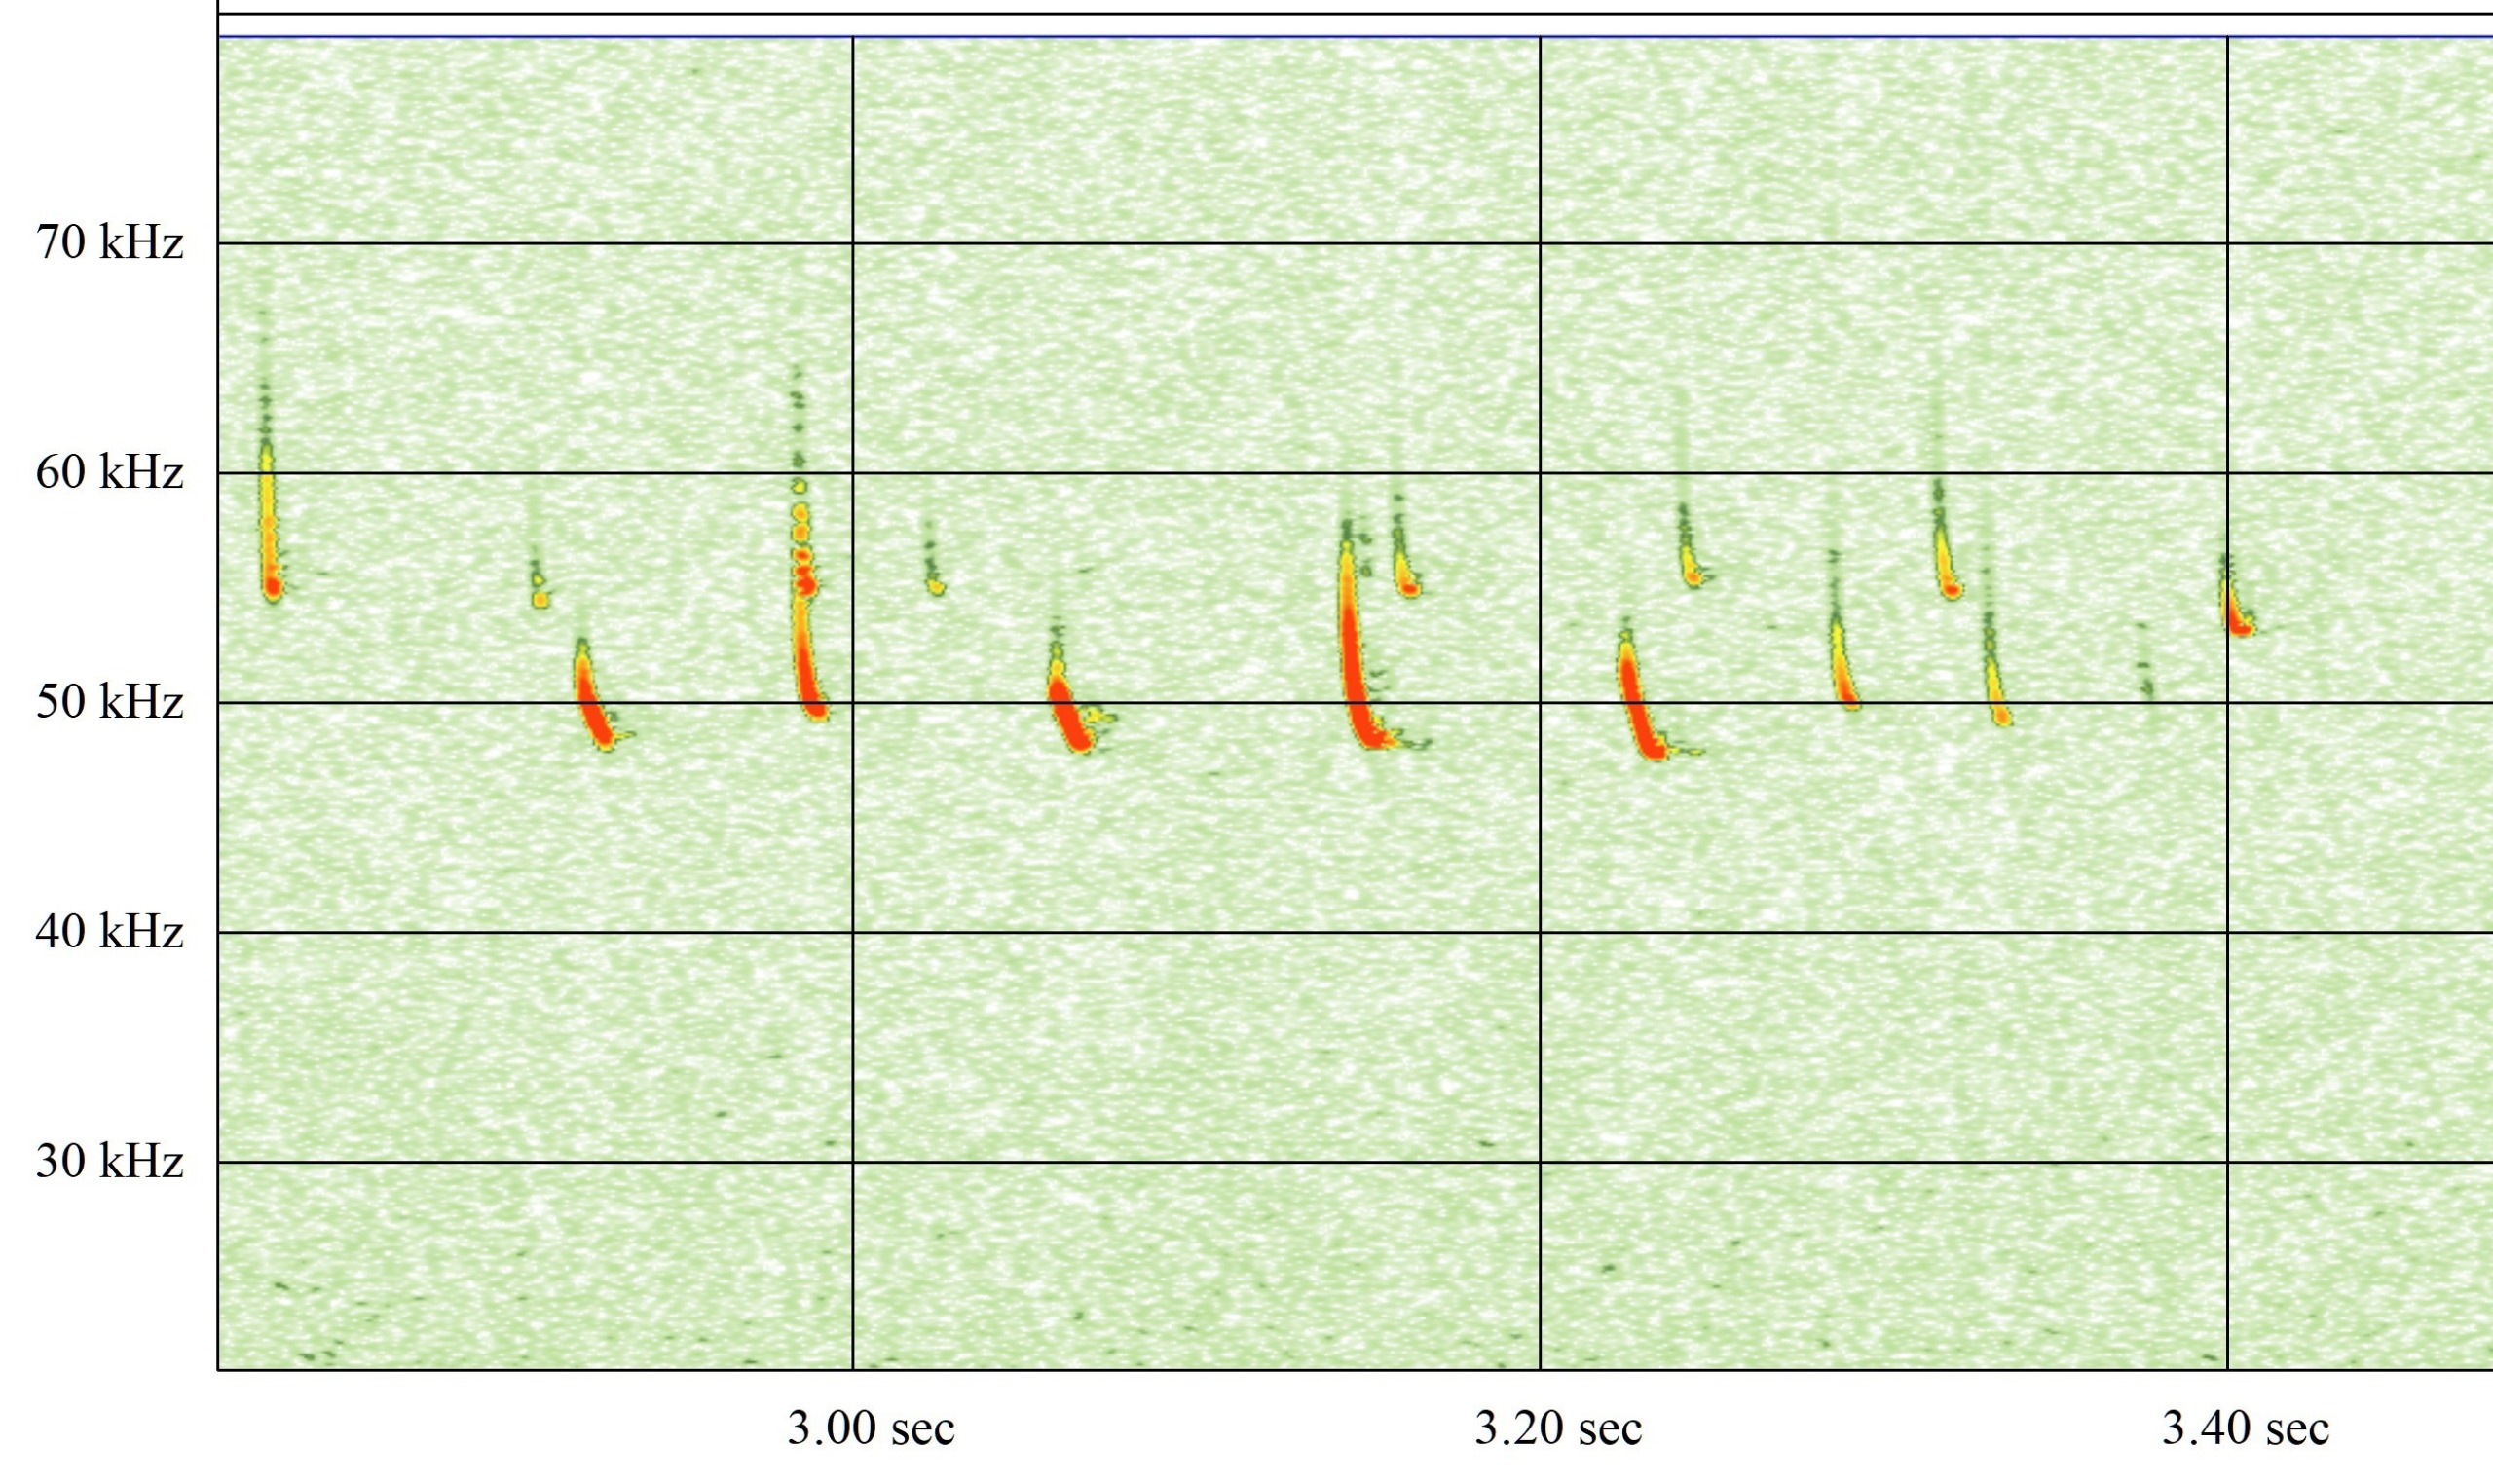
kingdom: Animalia
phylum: Chordata
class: Mammalia
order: Chiroptera
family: Vespertilionidae
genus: Pipistrellus
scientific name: Pipistrellus pipistrellus
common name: Pipistrelflagermus
